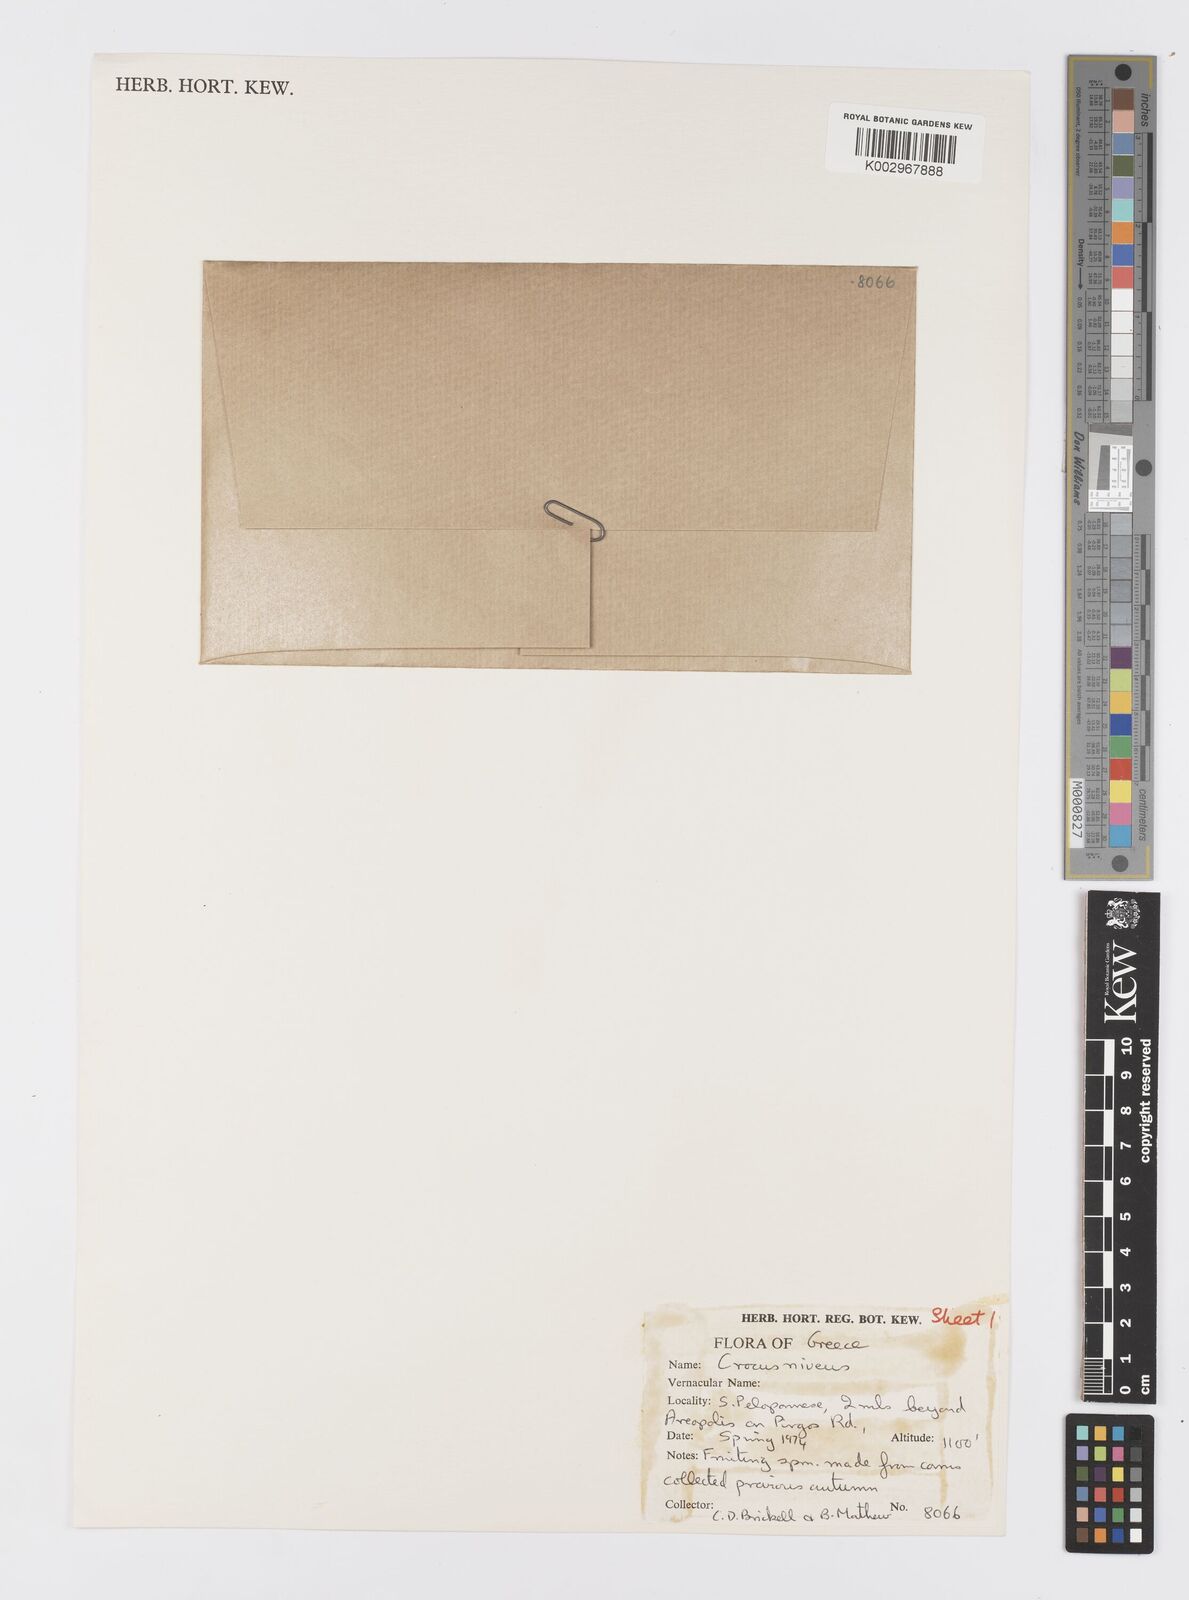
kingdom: Plantae
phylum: Tracheophyta
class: Liliopsida
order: Asparagales
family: Iridaceae
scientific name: Iridaceae
